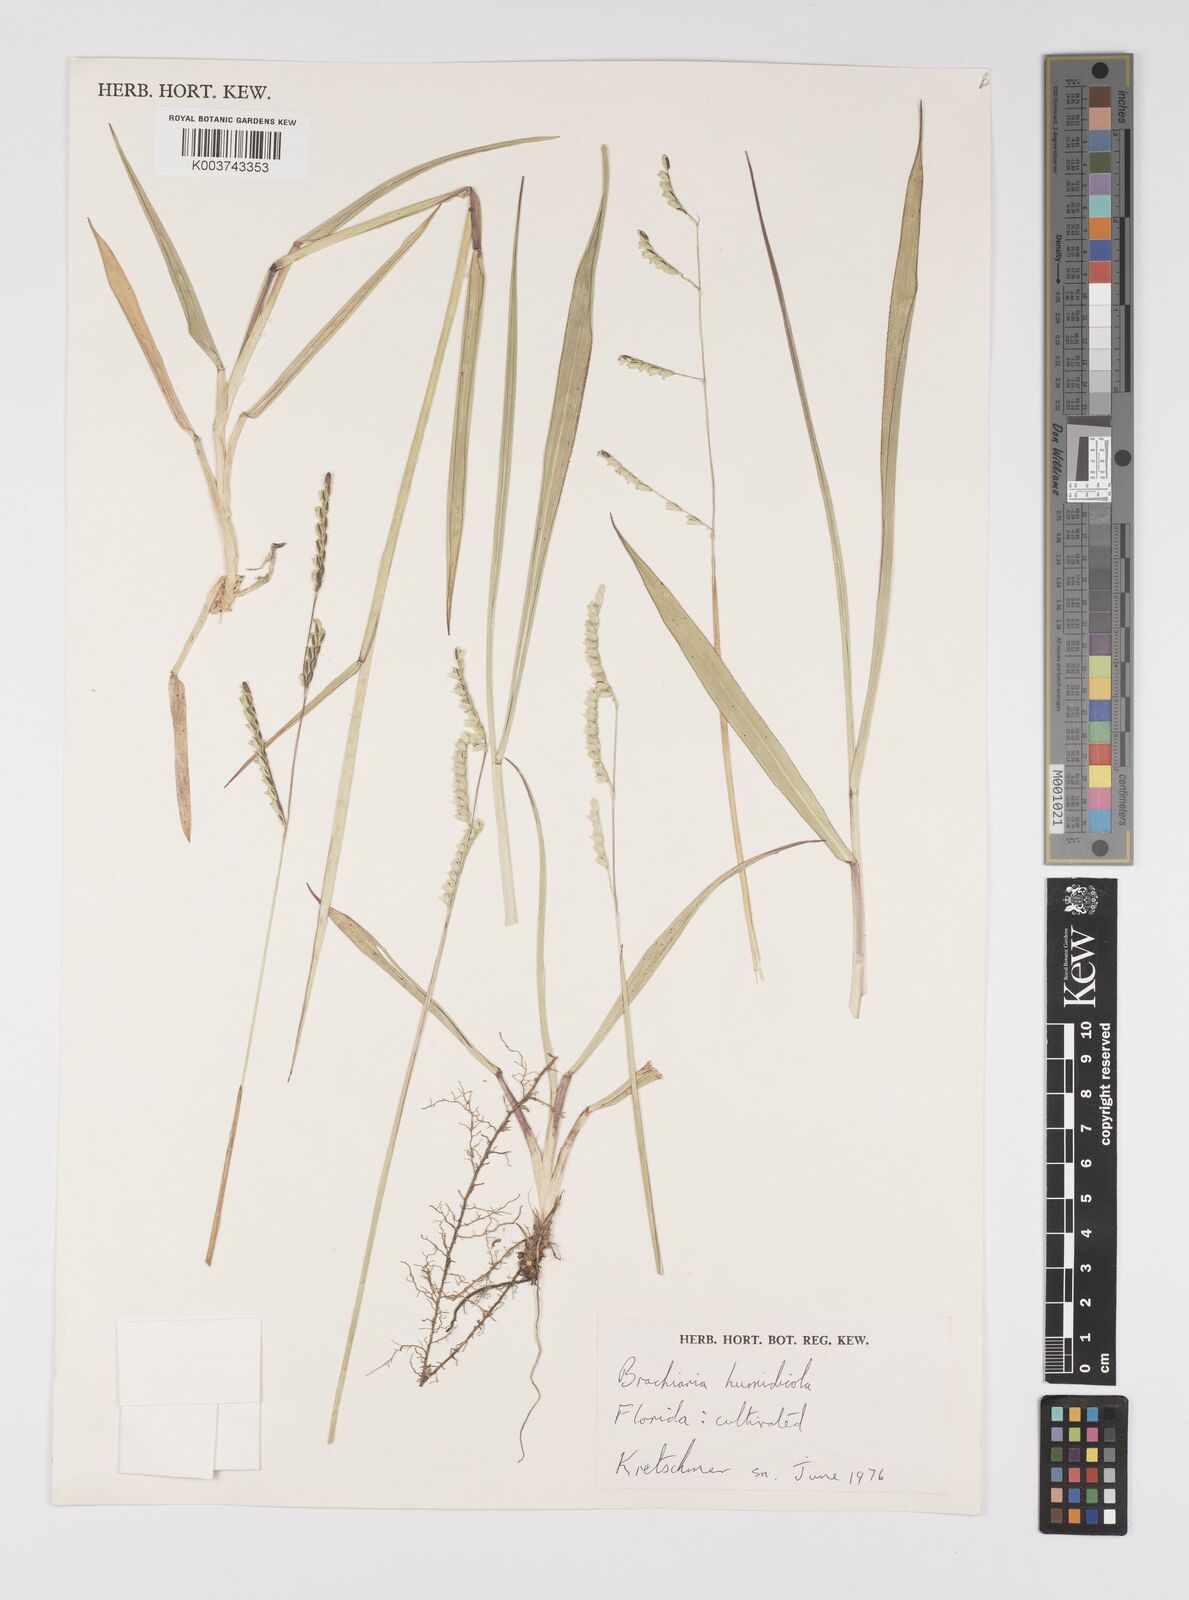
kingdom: Plantae
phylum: Tracheophyta
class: Liliopsida
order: Poales
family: Poaceae
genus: Urochloa
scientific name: Urochloa dictyoneura
